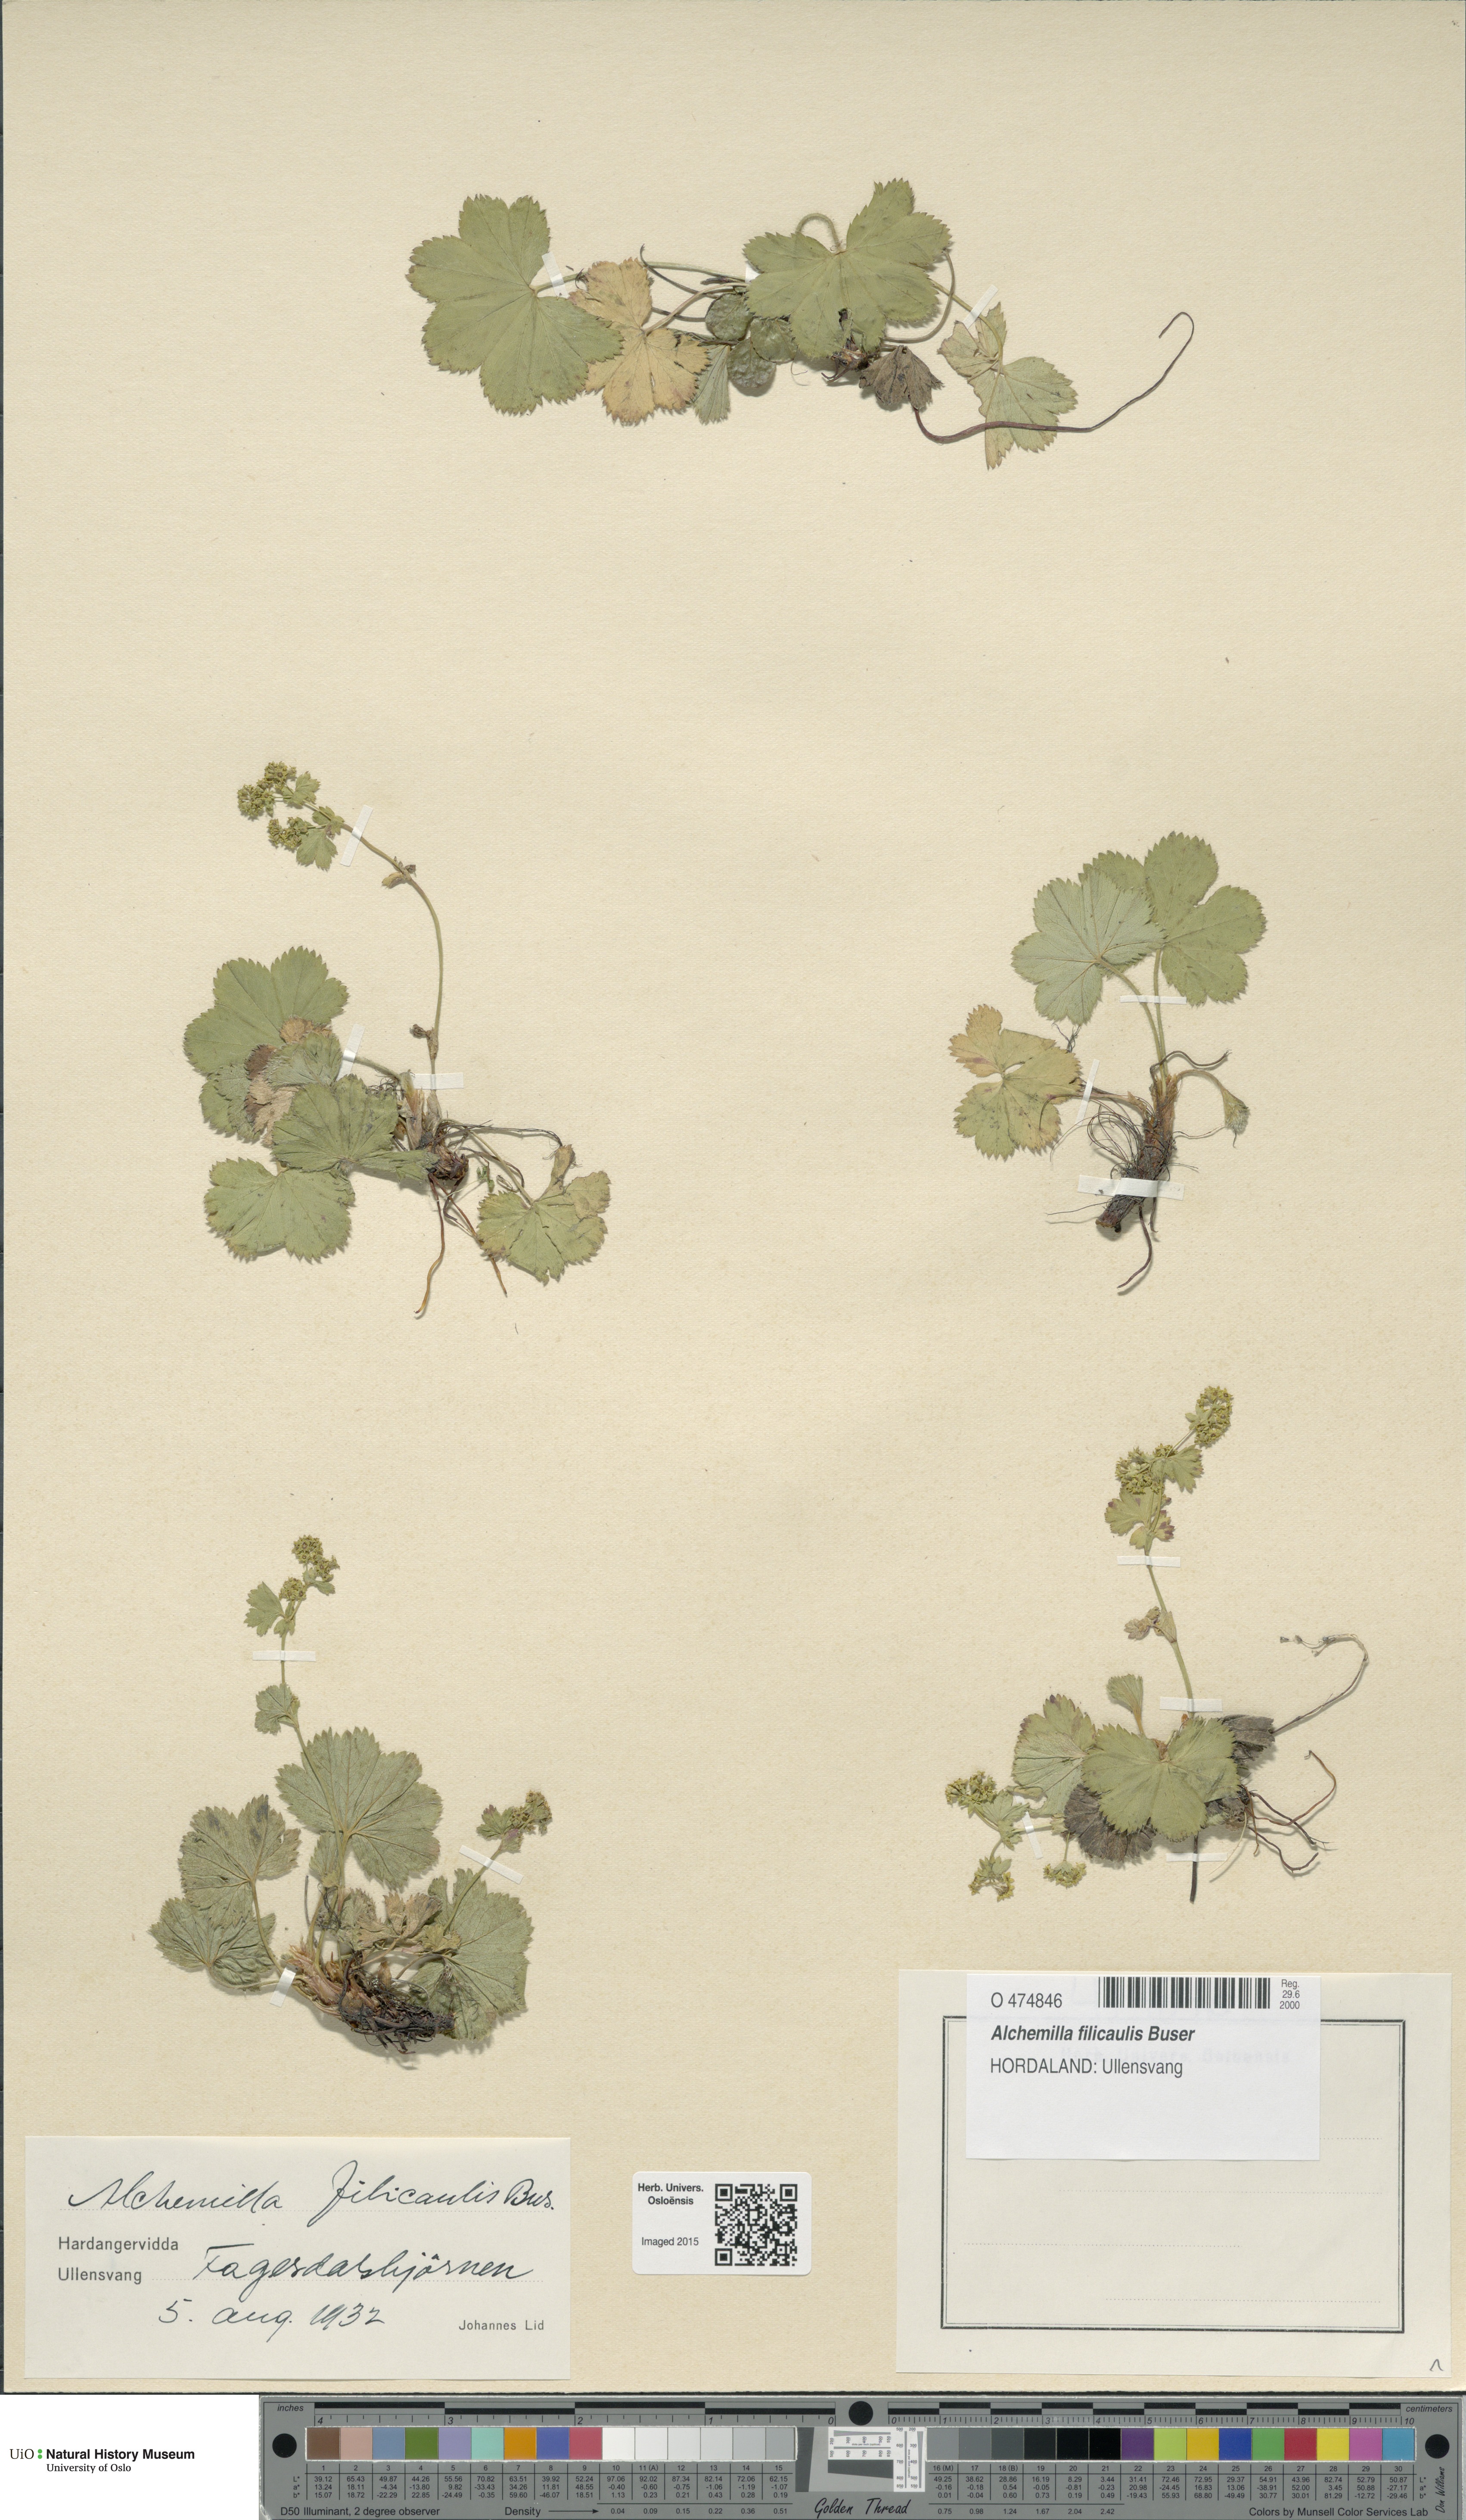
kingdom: Plantae
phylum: Tracheophyta
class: Magnoliopsida
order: Rosales
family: Rosaceae
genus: Alchemilla
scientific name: Alchemilla filicaulis
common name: Hairy lady's-mantle
